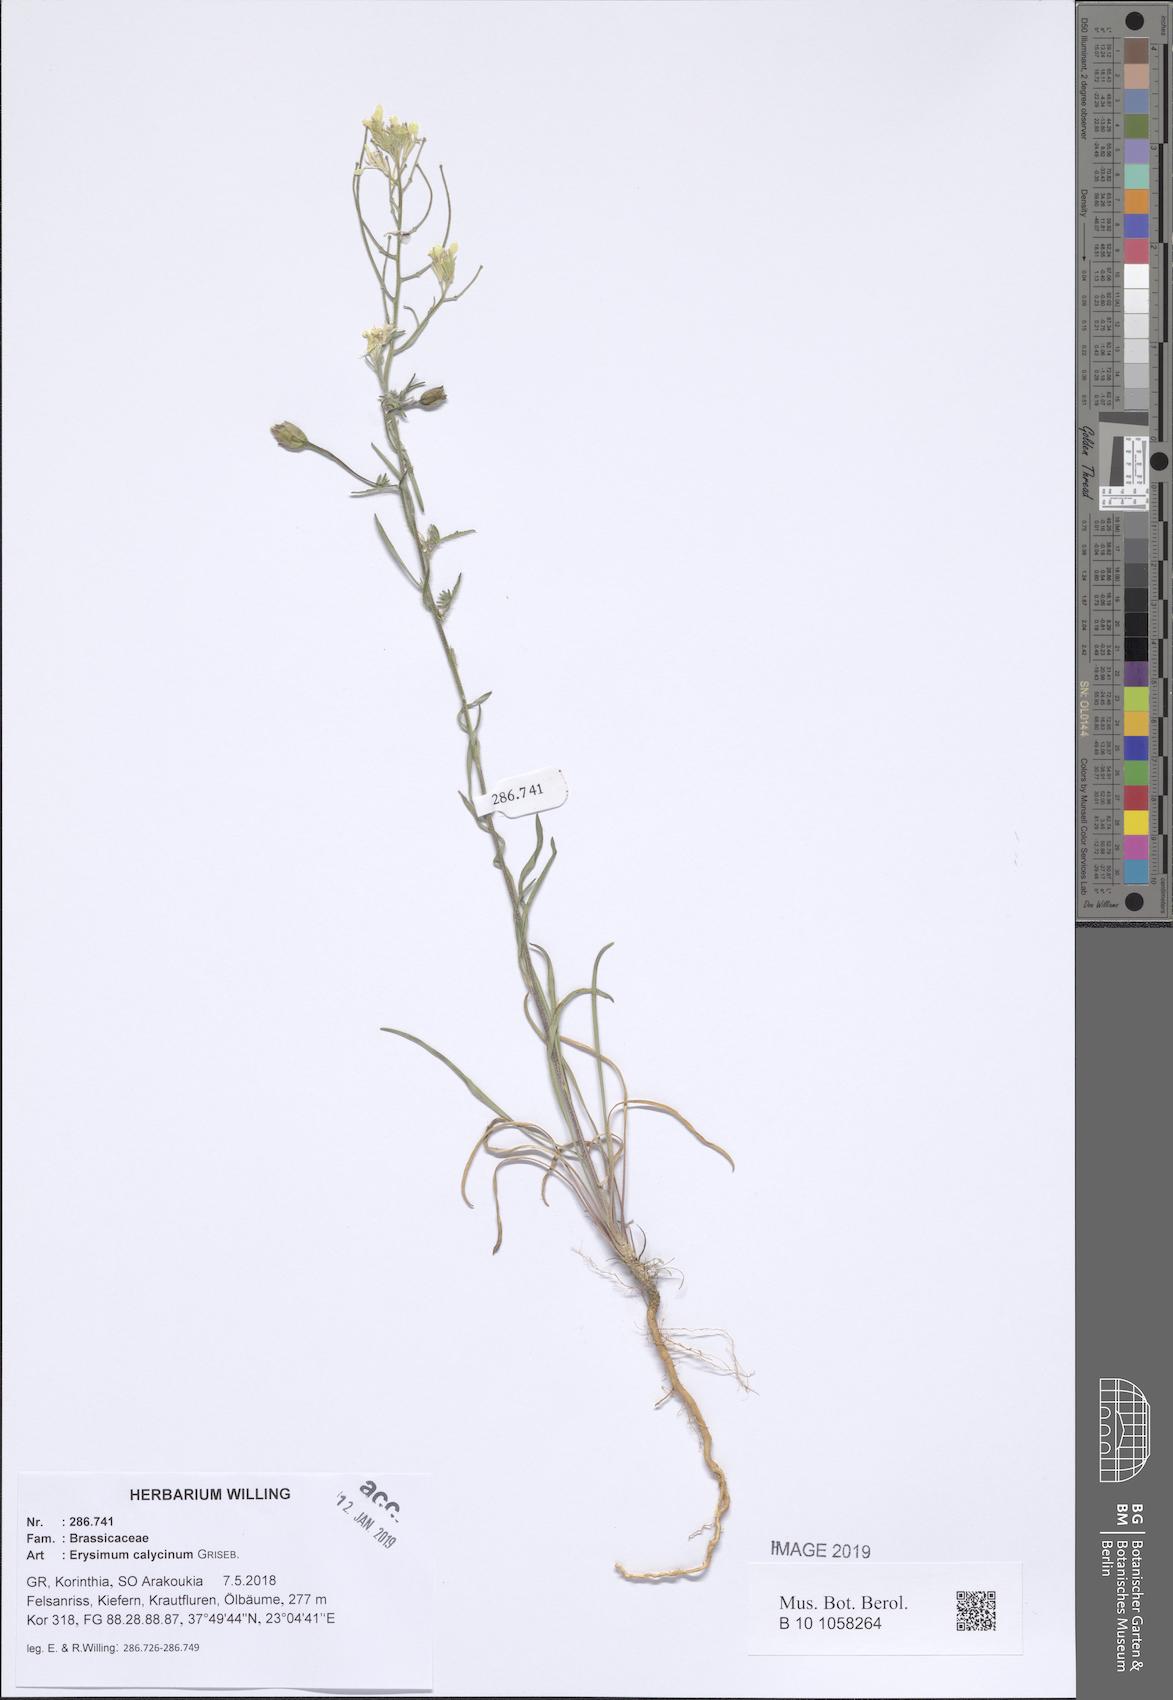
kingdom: Plantae
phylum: Tracheophyta
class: Magnoliopsida
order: Brassicales
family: Brassicaceae
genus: Erysimum
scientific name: Erysimum calycinum
